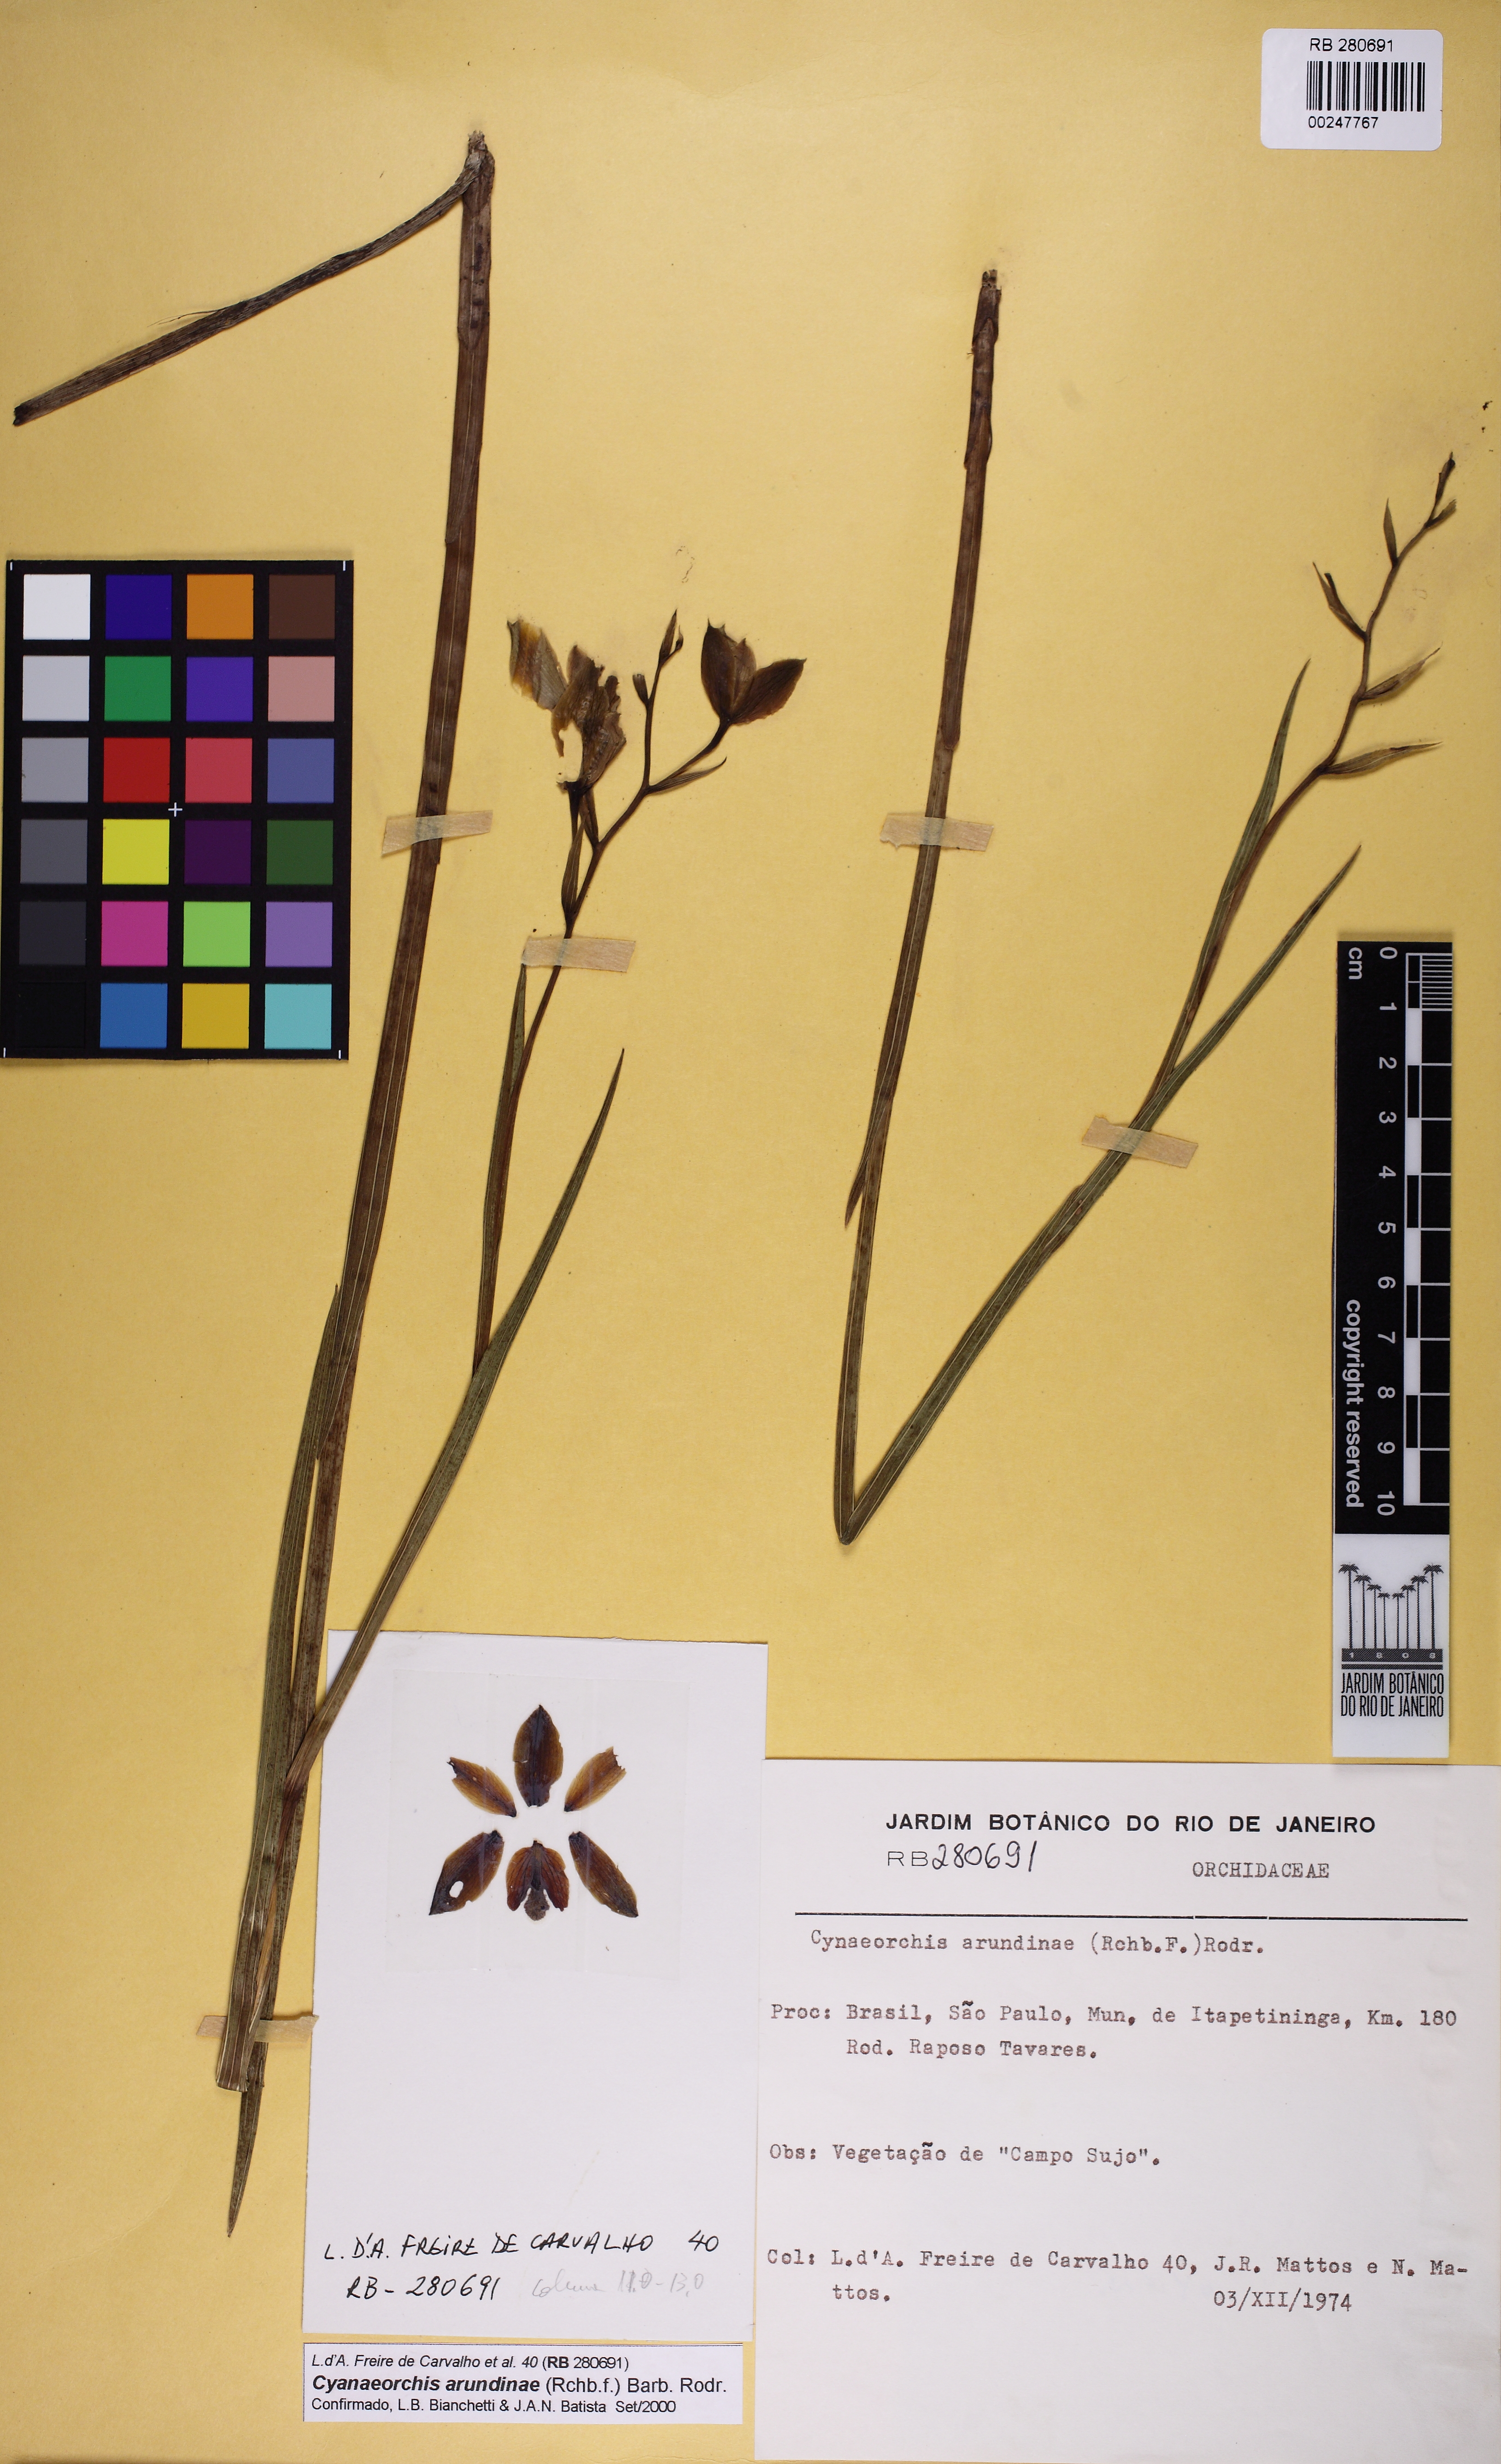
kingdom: Plantae
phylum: Tracheophyta
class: Liliopsida
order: Asparagales
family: Orchidaceae
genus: Cyanaeorchis
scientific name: Cyanaeorchis arundinae
